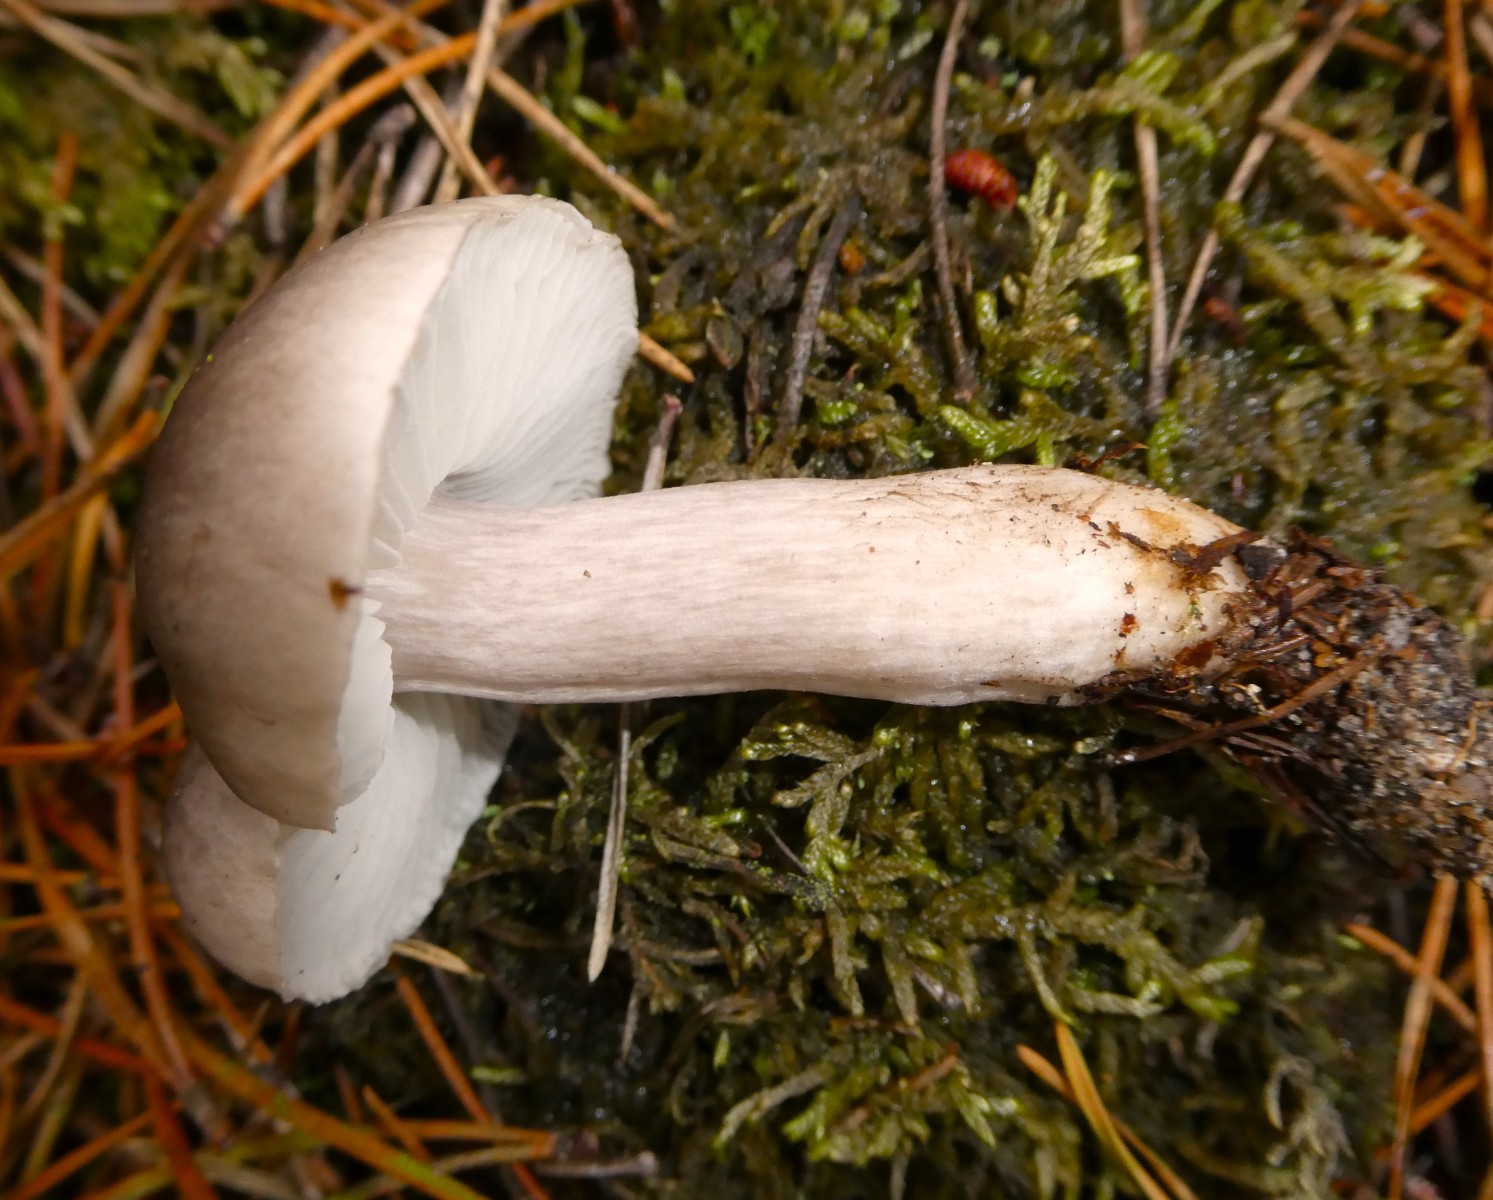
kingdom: Fungi
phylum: Basidiomycota
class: Agaricomycetes
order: Agaricales
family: Tricholomataceae
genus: Tricholoma
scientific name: Tricholoma terreum
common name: jordfarvet ridderhat
